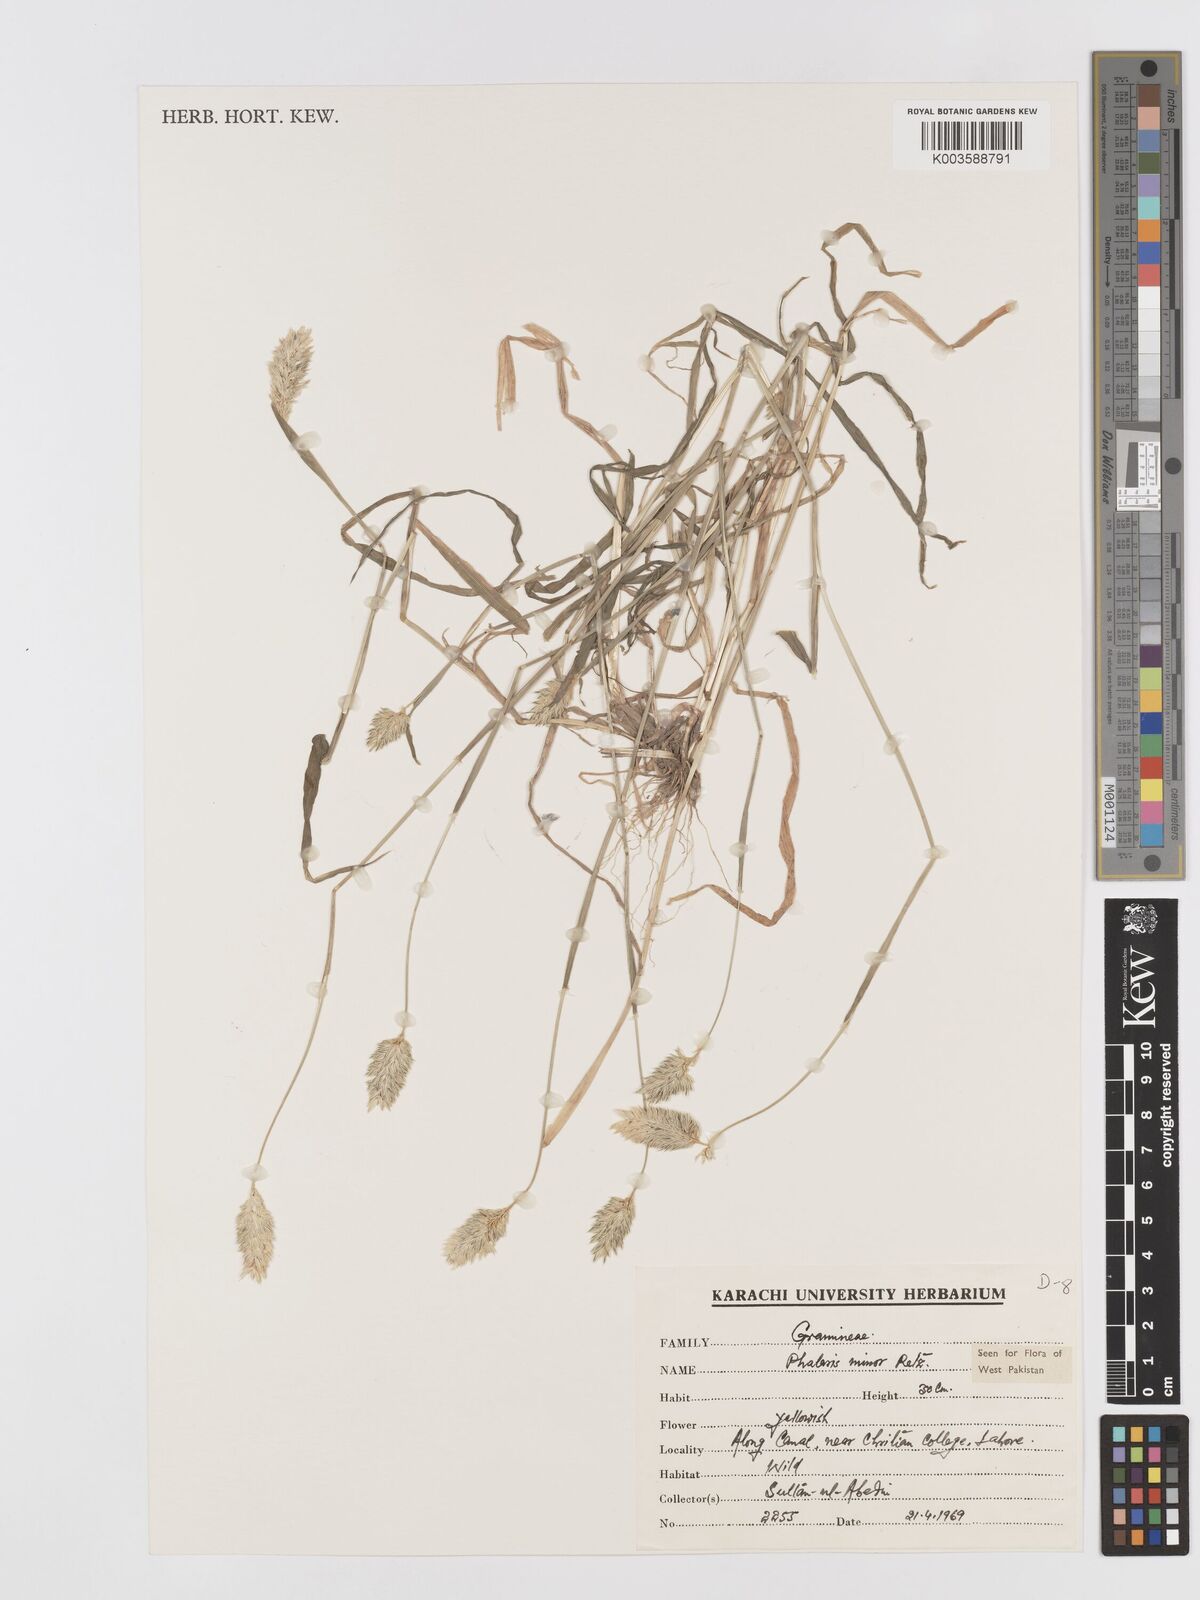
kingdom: Plantae
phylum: Tracheophyta
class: Liliopsida
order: Poales
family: Poaceae
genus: Phalaris
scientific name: Phalaris minor
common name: Littleseed canarygrass
